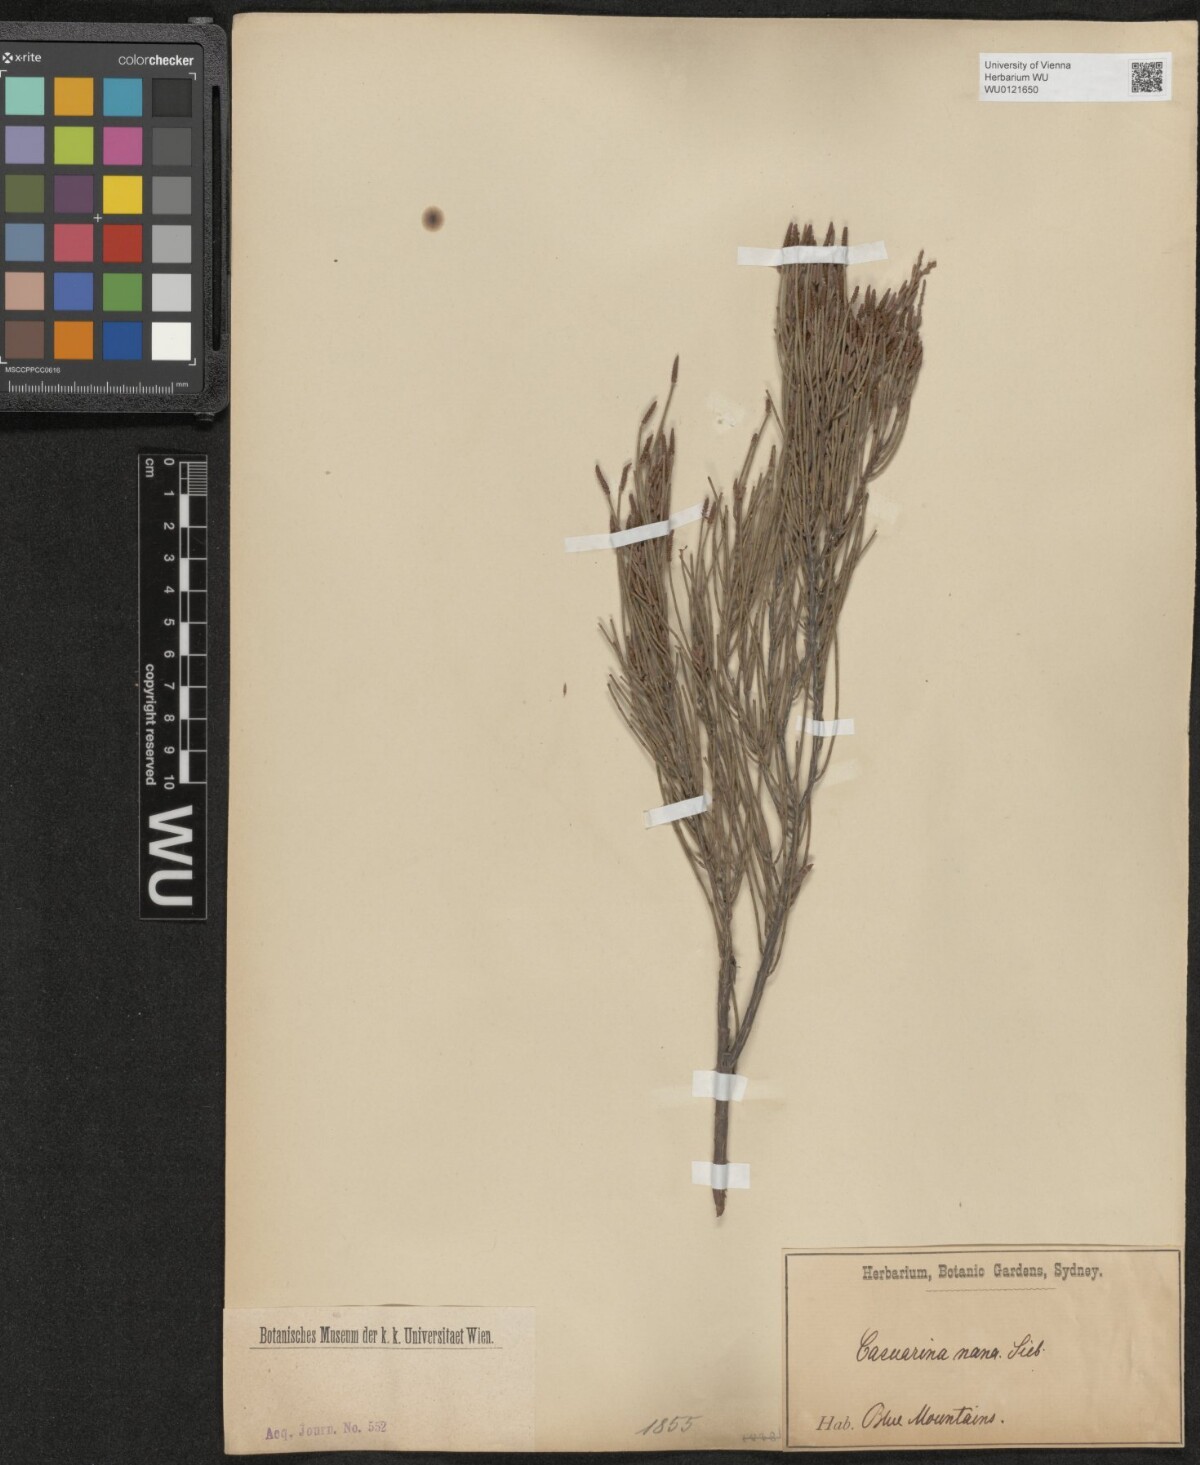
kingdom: Plantae
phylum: Tracheophyta
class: Magnoliopsida
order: Fagales
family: Casuarinaceae
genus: Allocasuarina
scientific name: Allocasuarina nana
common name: Stunted she-oak
